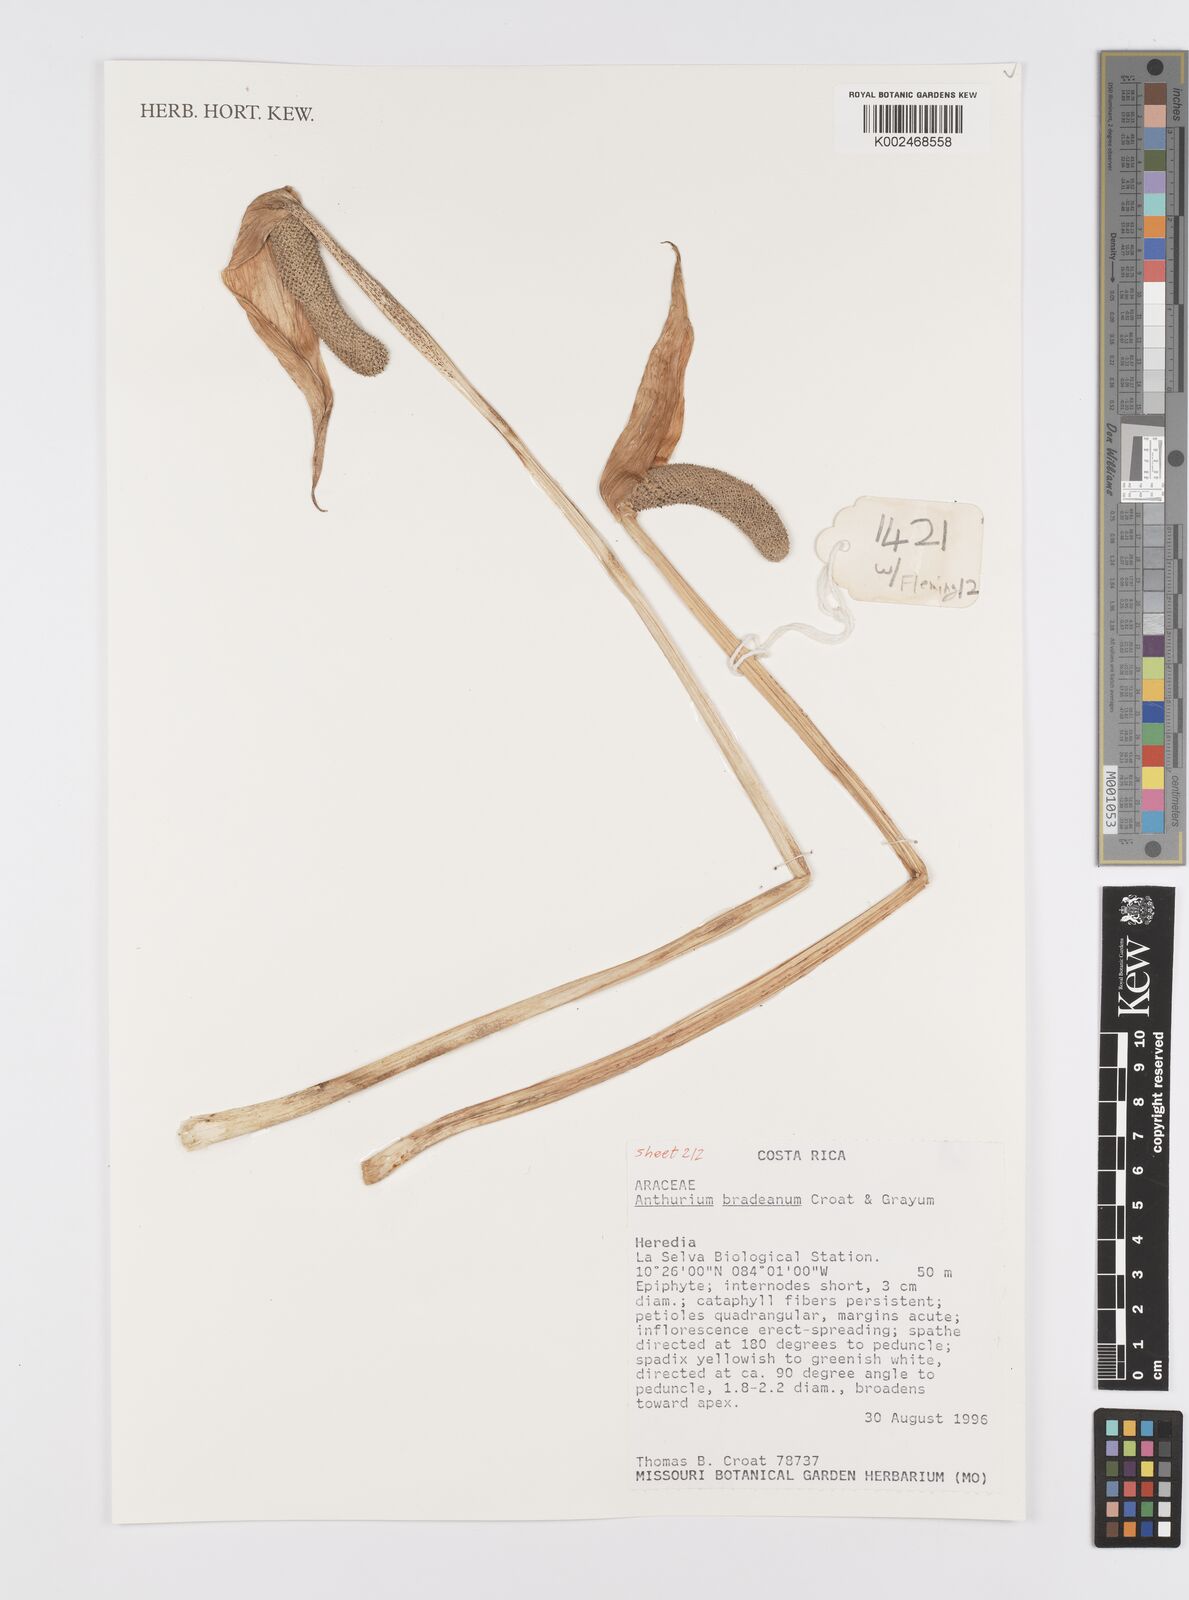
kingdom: Plantae
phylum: Tracheophyta
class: Liliopsida
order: Alismatales
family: Araceae
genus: Anthurium
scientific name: Anthurium bradeanum
